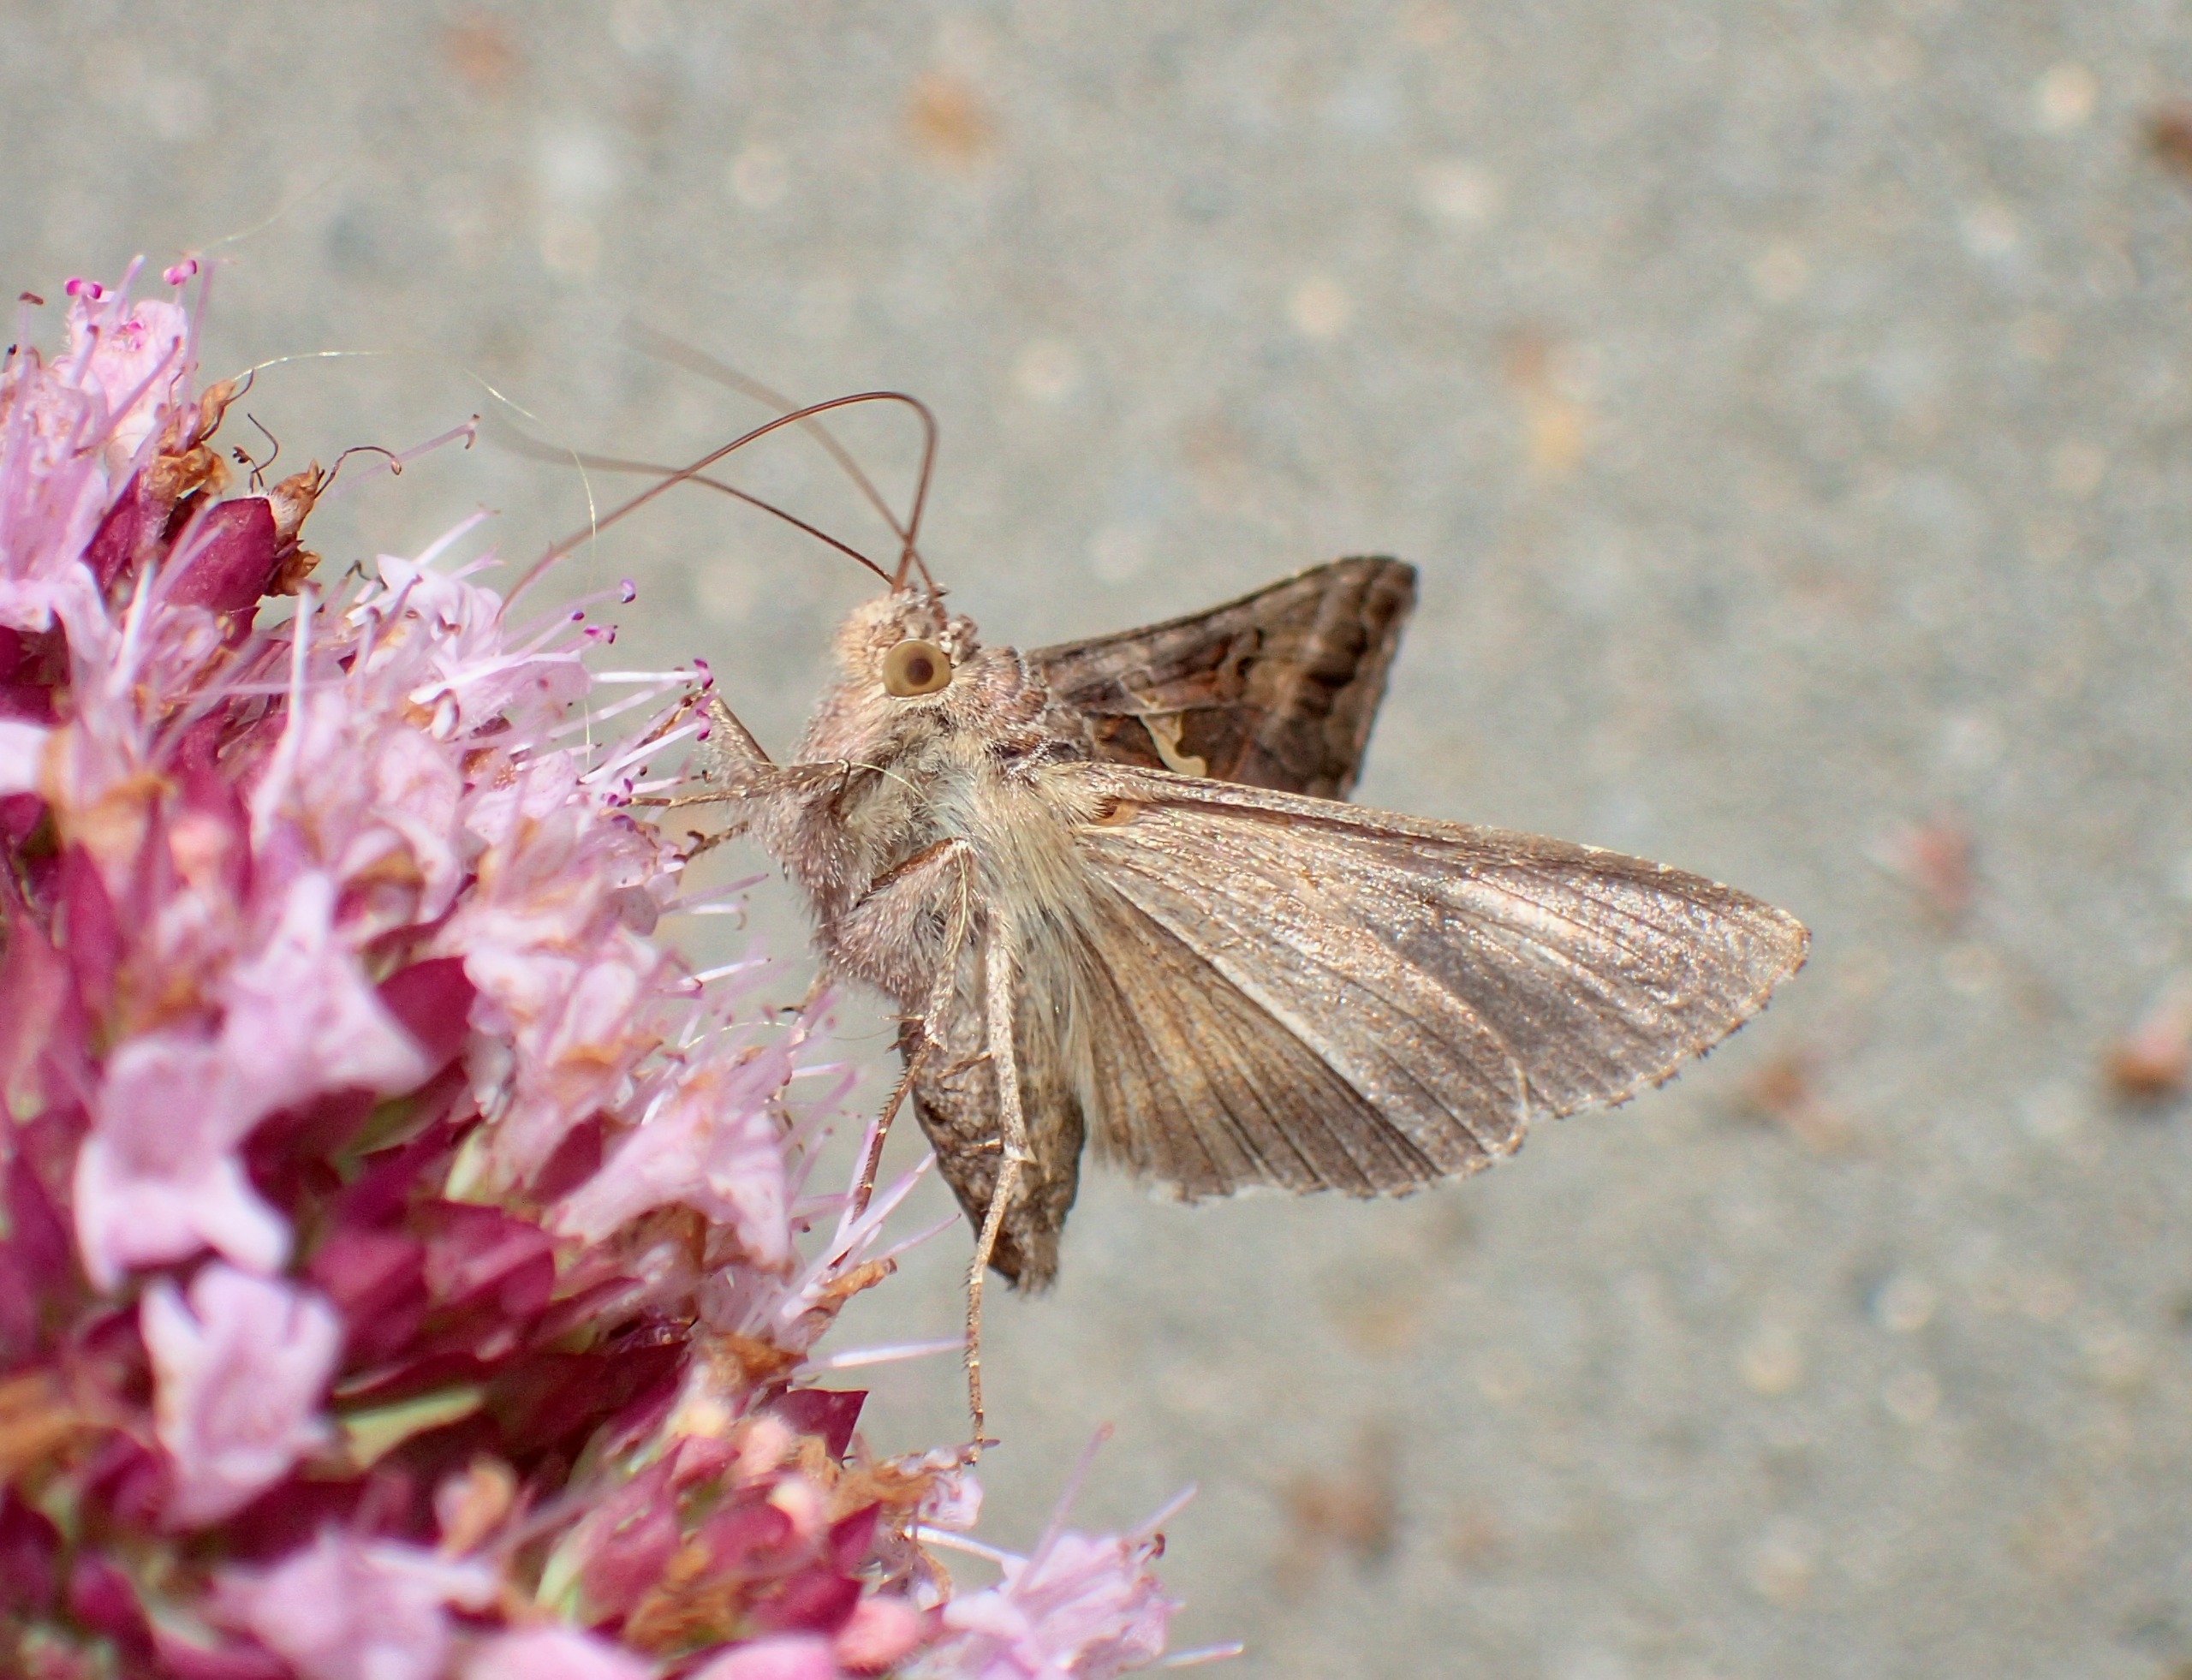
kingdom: Animalia
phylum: Arthropoda
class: Insecta
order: Lepidoptera
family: Noctuidae
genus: Autographa
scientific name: Autographa gamma
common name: Gammaugle
